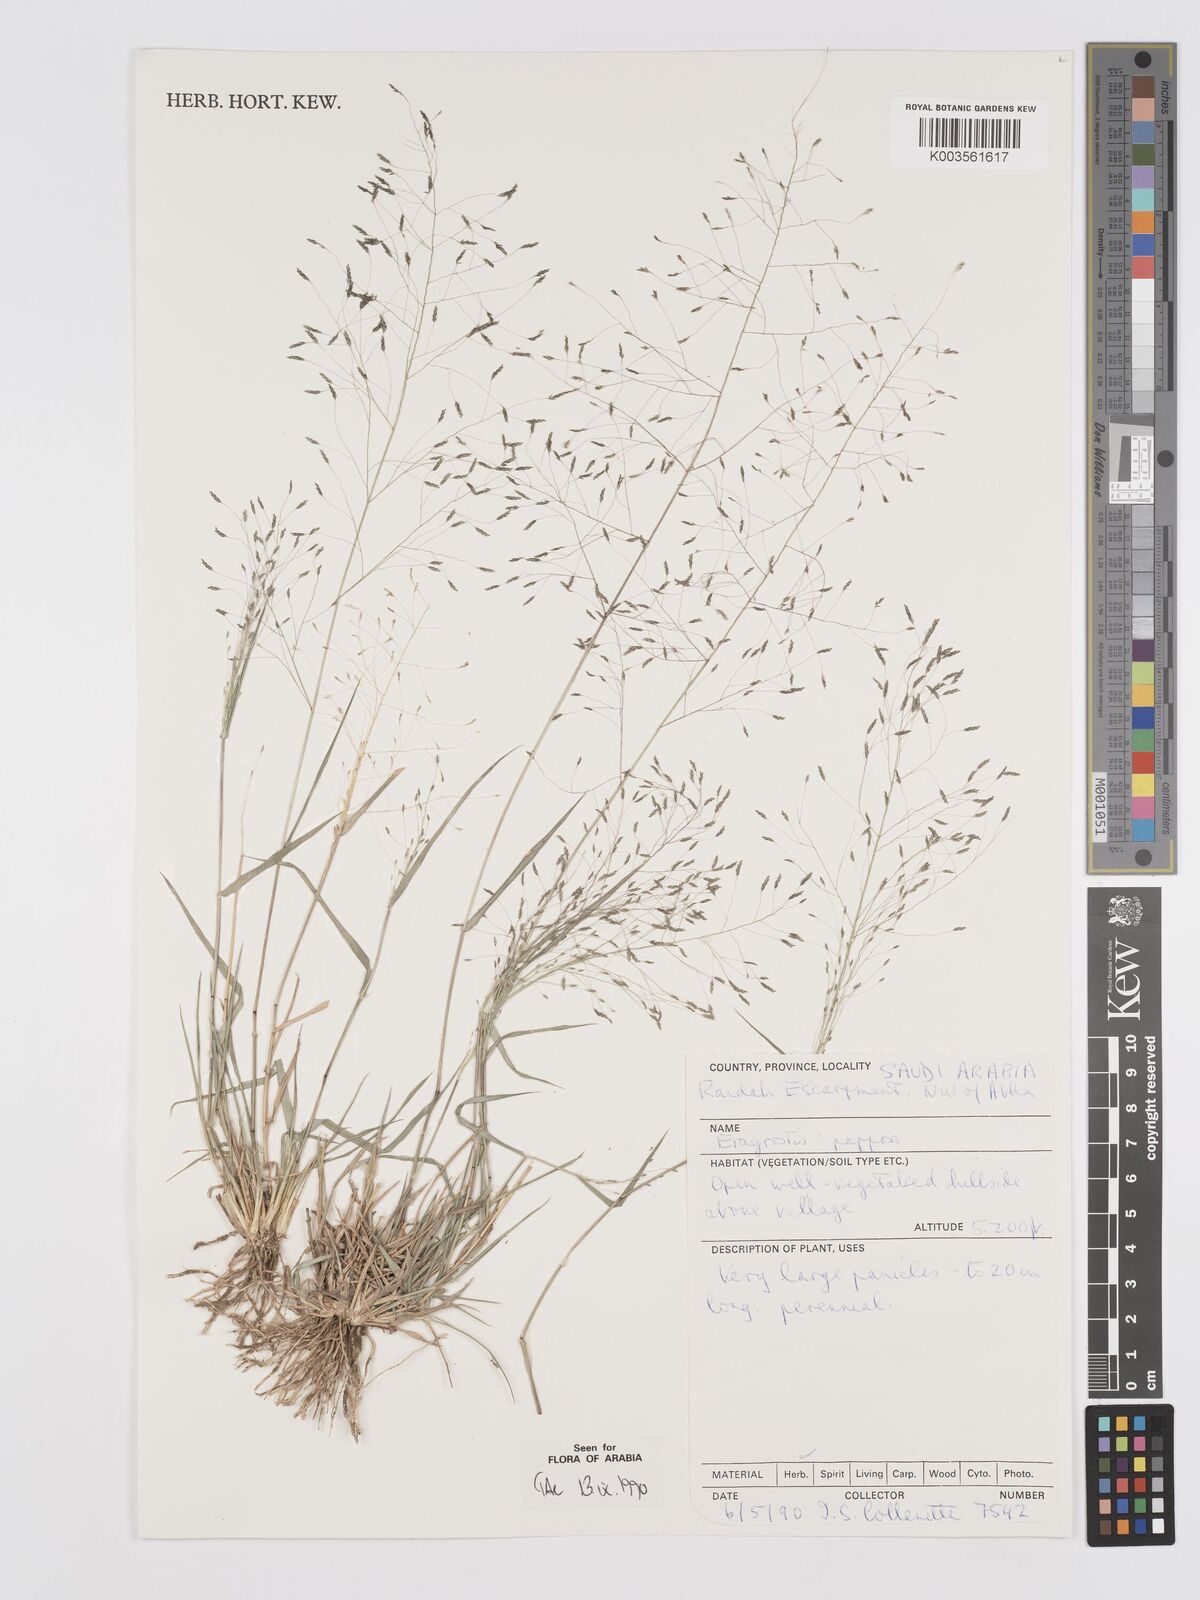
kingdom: Plantae
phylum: Tracheophyta
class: Liliopsida
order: Poales
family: Poaceae
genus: Eragrostis
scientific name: Eragrostis papposa
